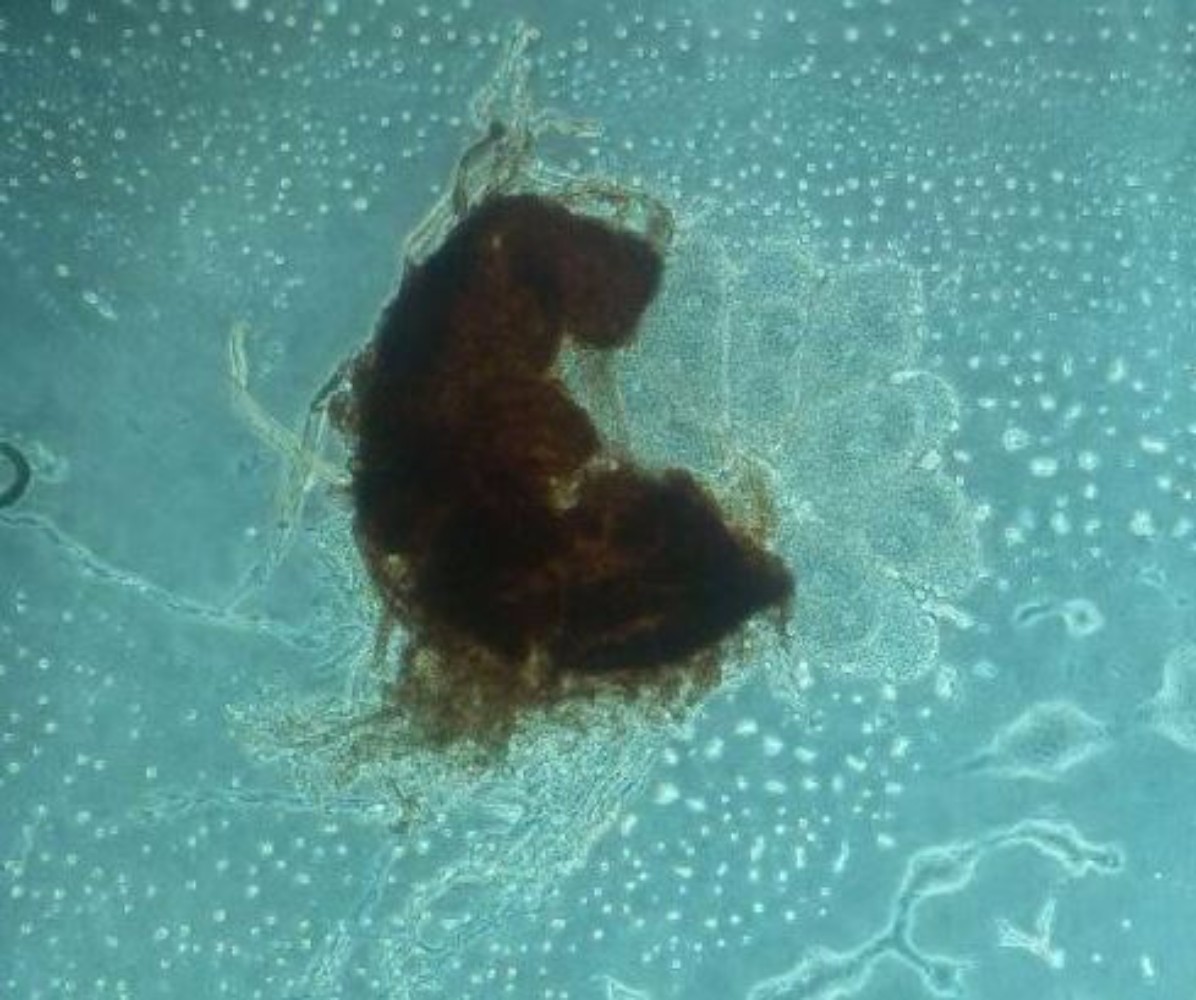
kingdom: Fungi
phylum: Ascomycota
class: Leotiomycetes
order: Helotiales
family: Erysiphaceae
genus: Golovinomyces
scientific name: Golovinomyces depressus
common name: Burdock mildew
